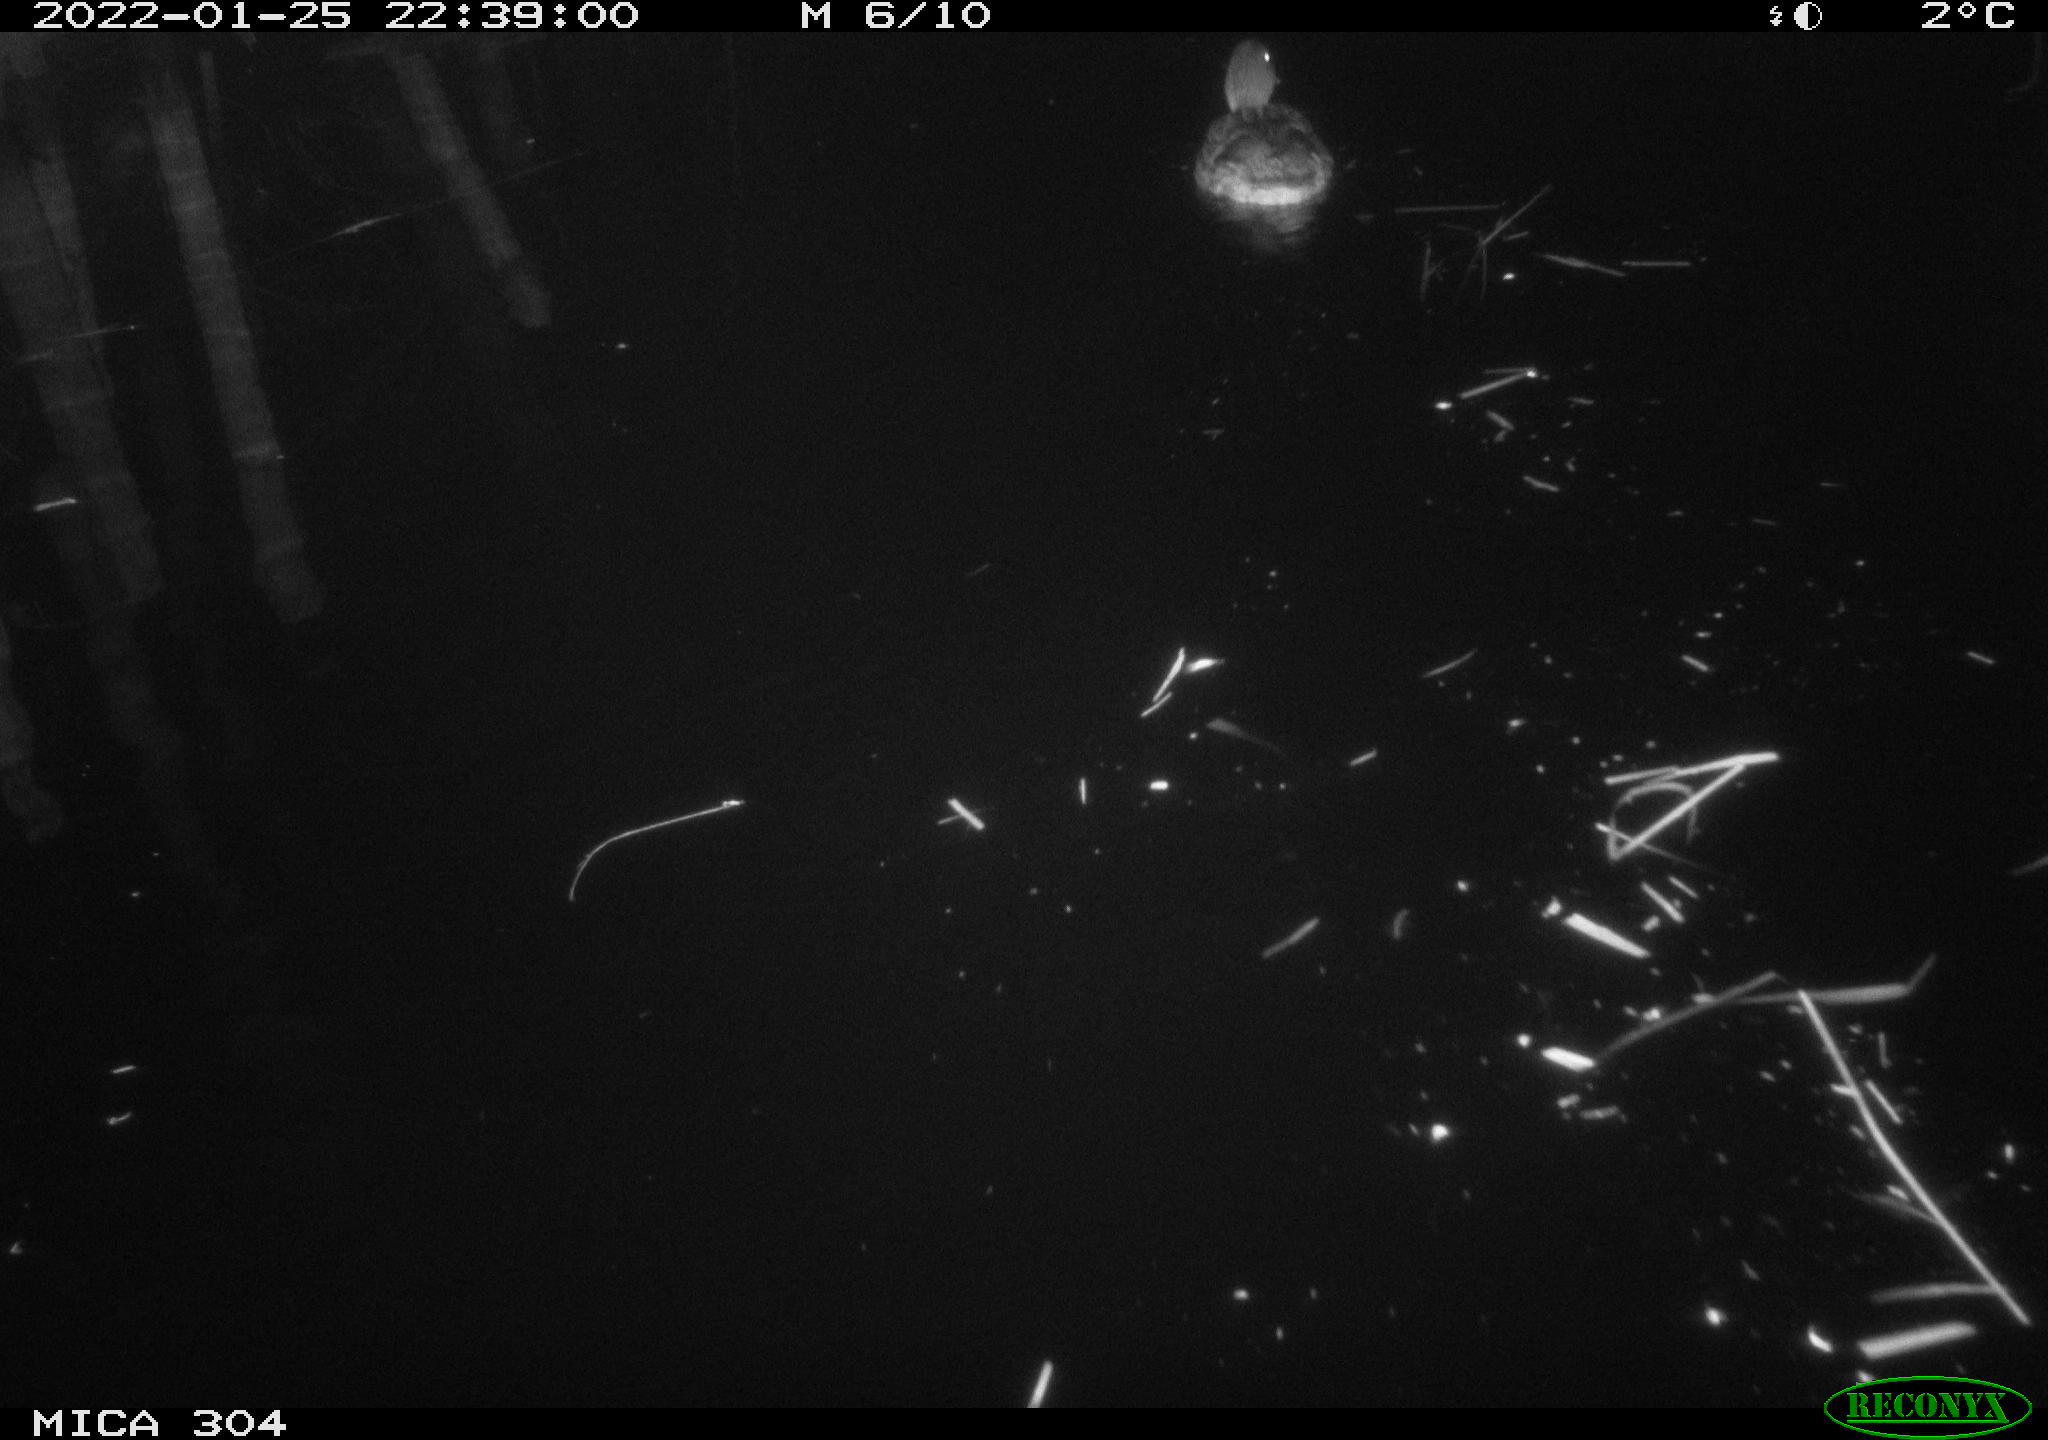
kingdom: Animalia
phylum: Chordata
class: Aves
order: Anseriformes
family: Anatidae
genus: Anas
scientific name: Anas
